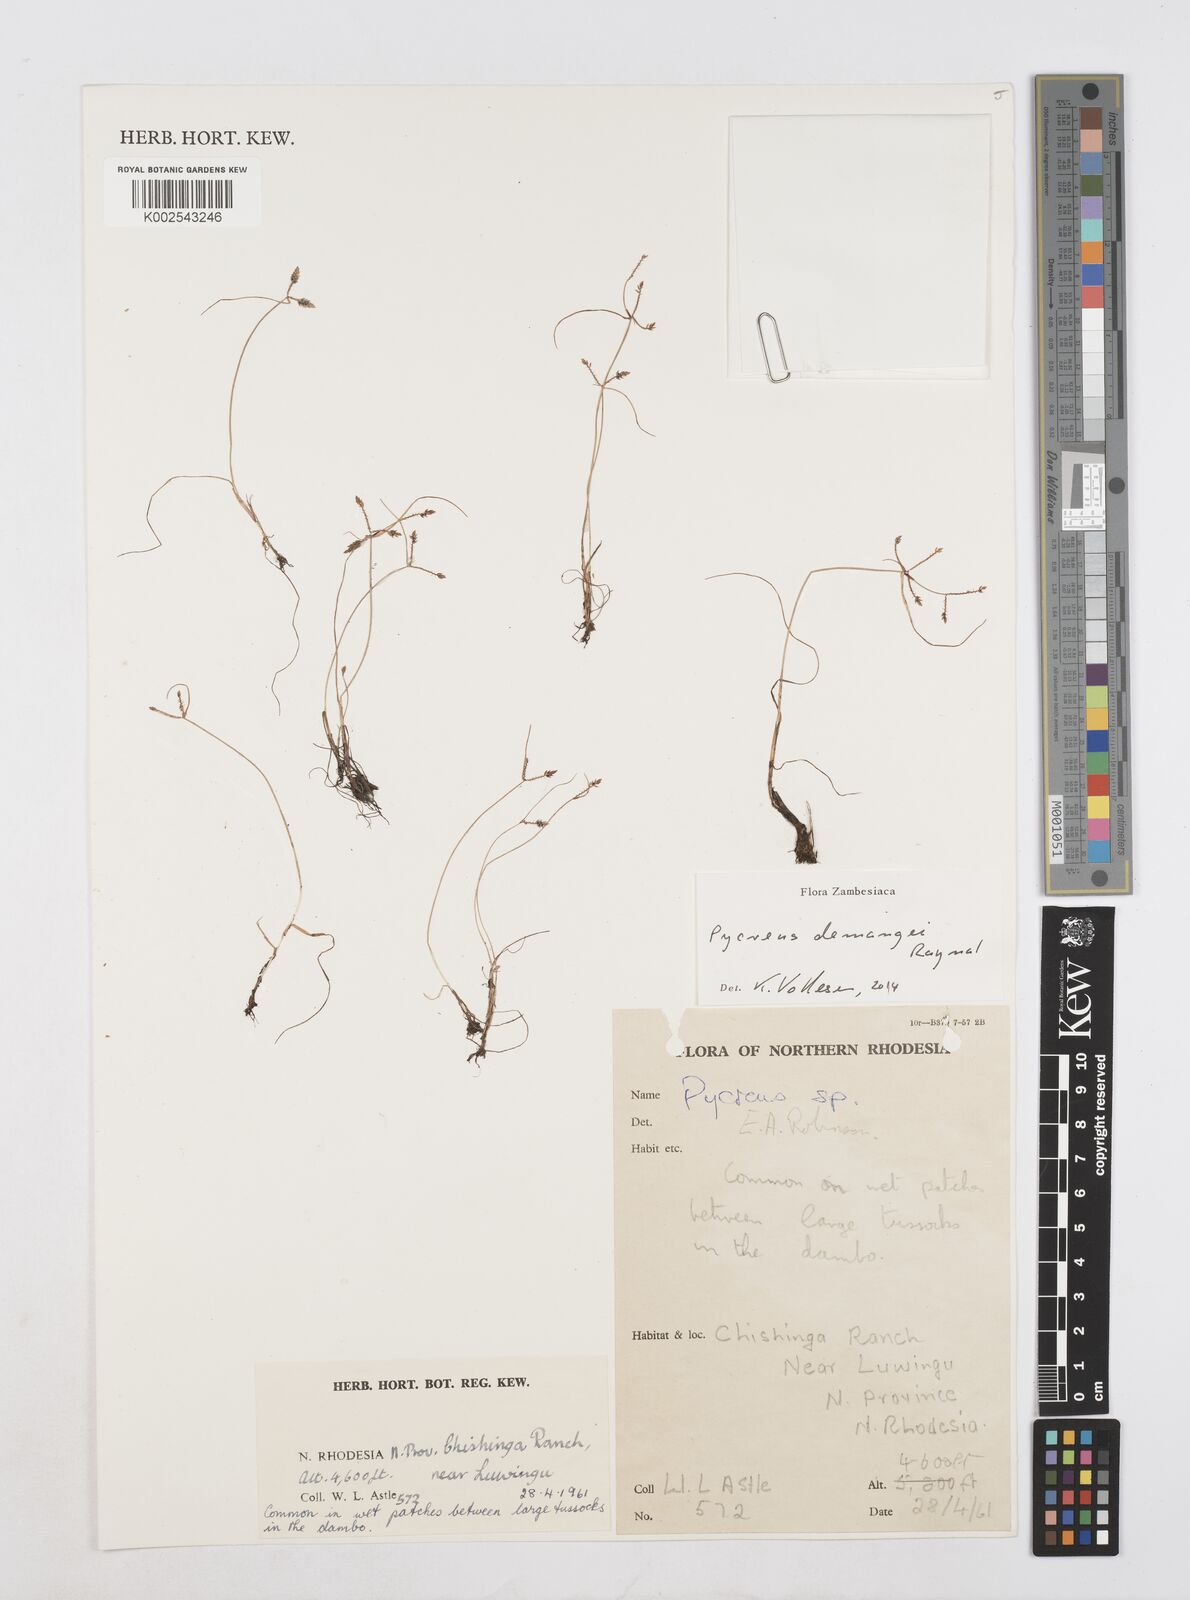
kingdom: Plantae
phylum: Tracheophyta
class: Liliopsida
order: Poales
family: Cyperaceae
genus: Cyperus
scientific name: Cyperus demangei
